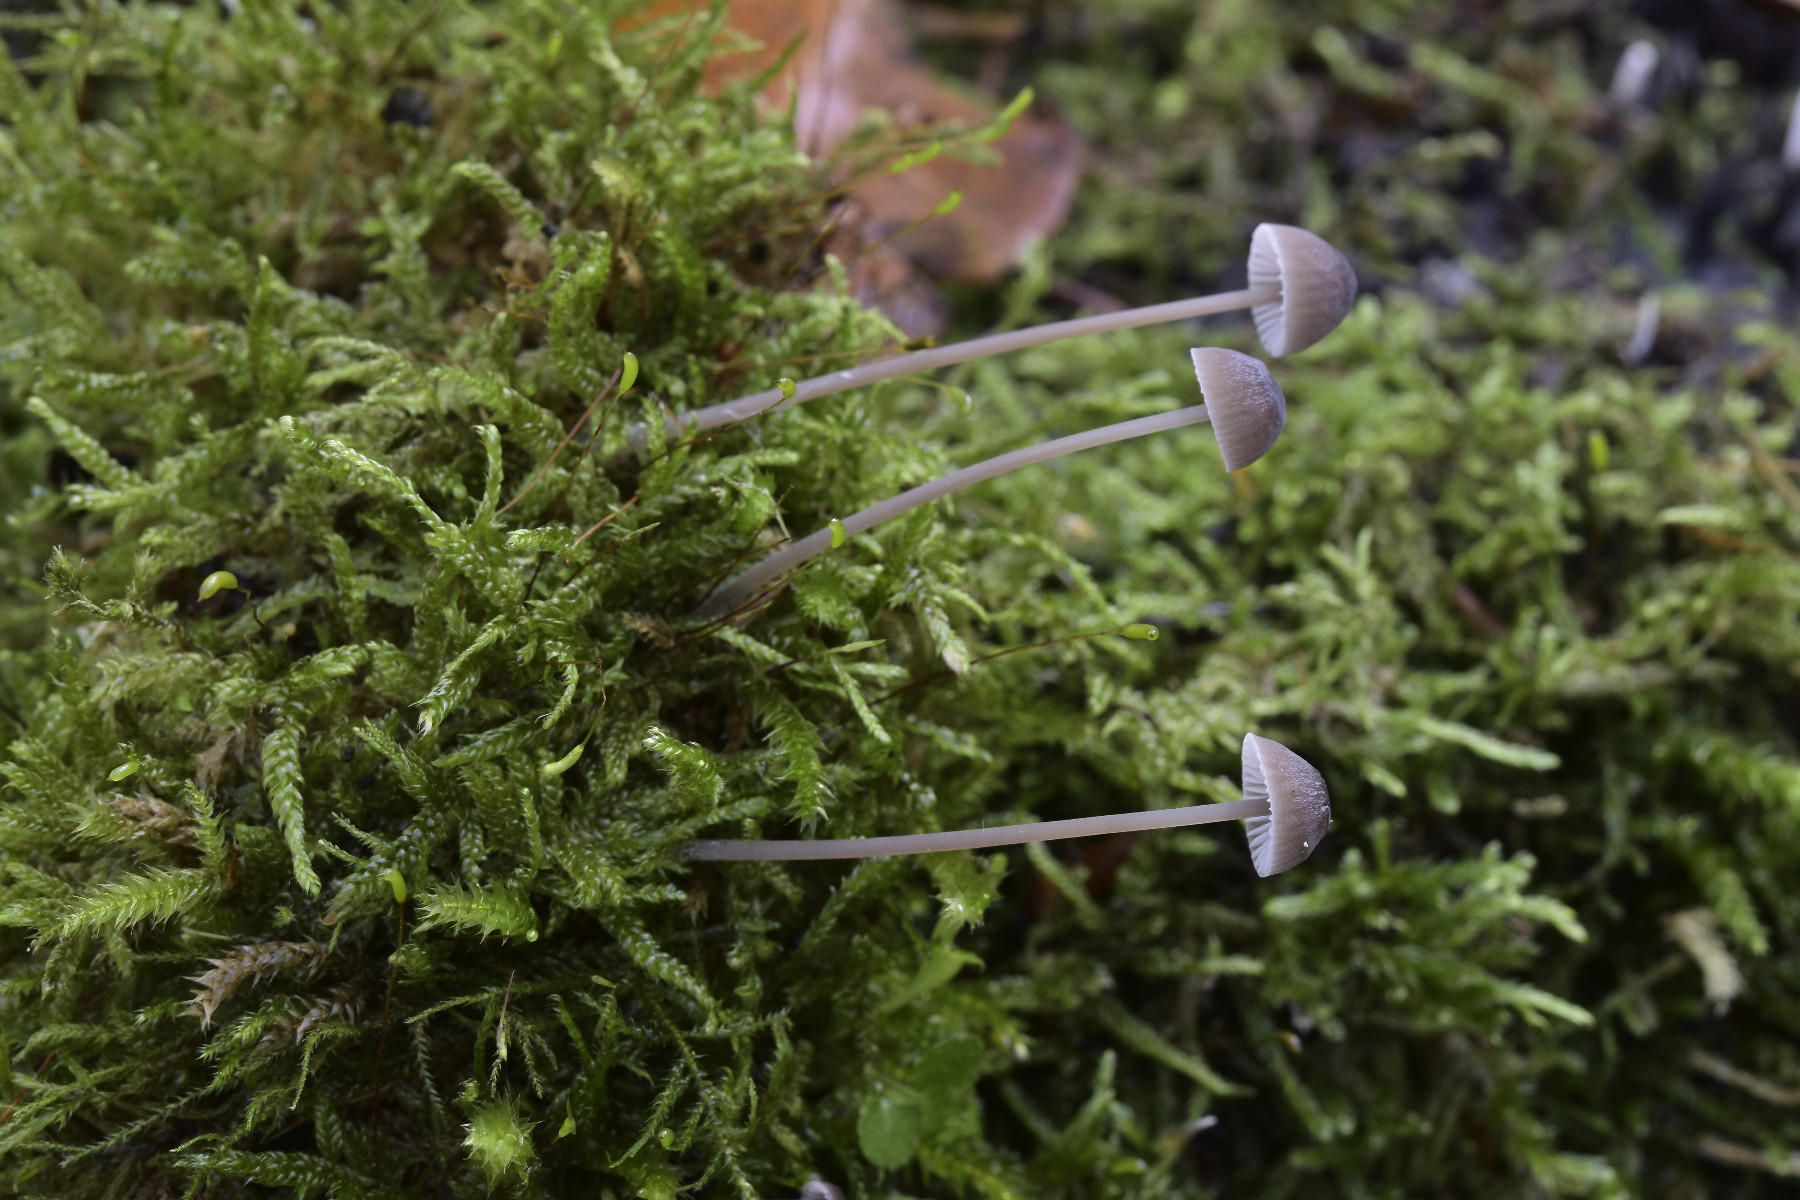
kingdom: Fungi
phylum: Basidiomycota
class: Agaricomycetes
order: Agaricales
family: Mycenaceae
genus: Mycena
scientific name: Mycena erubescens
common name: galde-huesvamp
